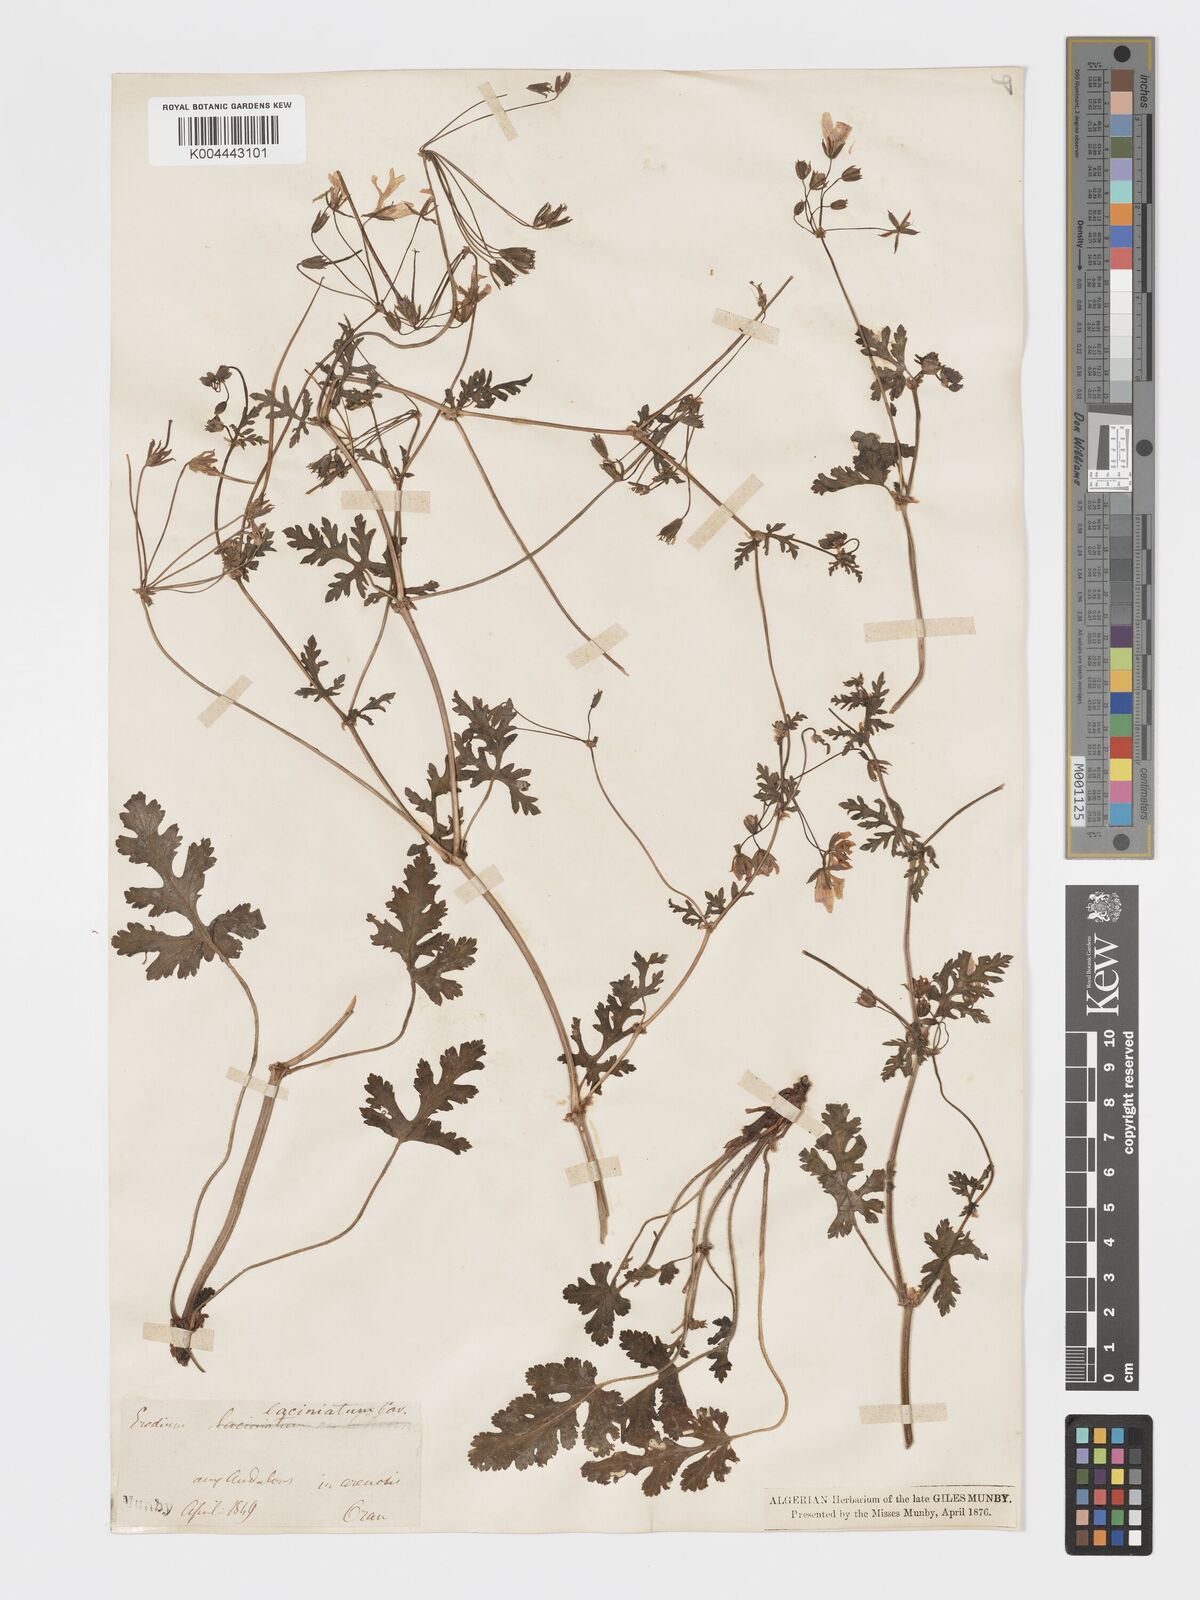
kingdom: Plantae
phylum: Tracheophyta
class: Magnoliopsida
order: Geraniales
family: Geraniaceae
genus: Erodium
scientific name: Erodium laciniatum
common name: Cutleaf stork's bill
